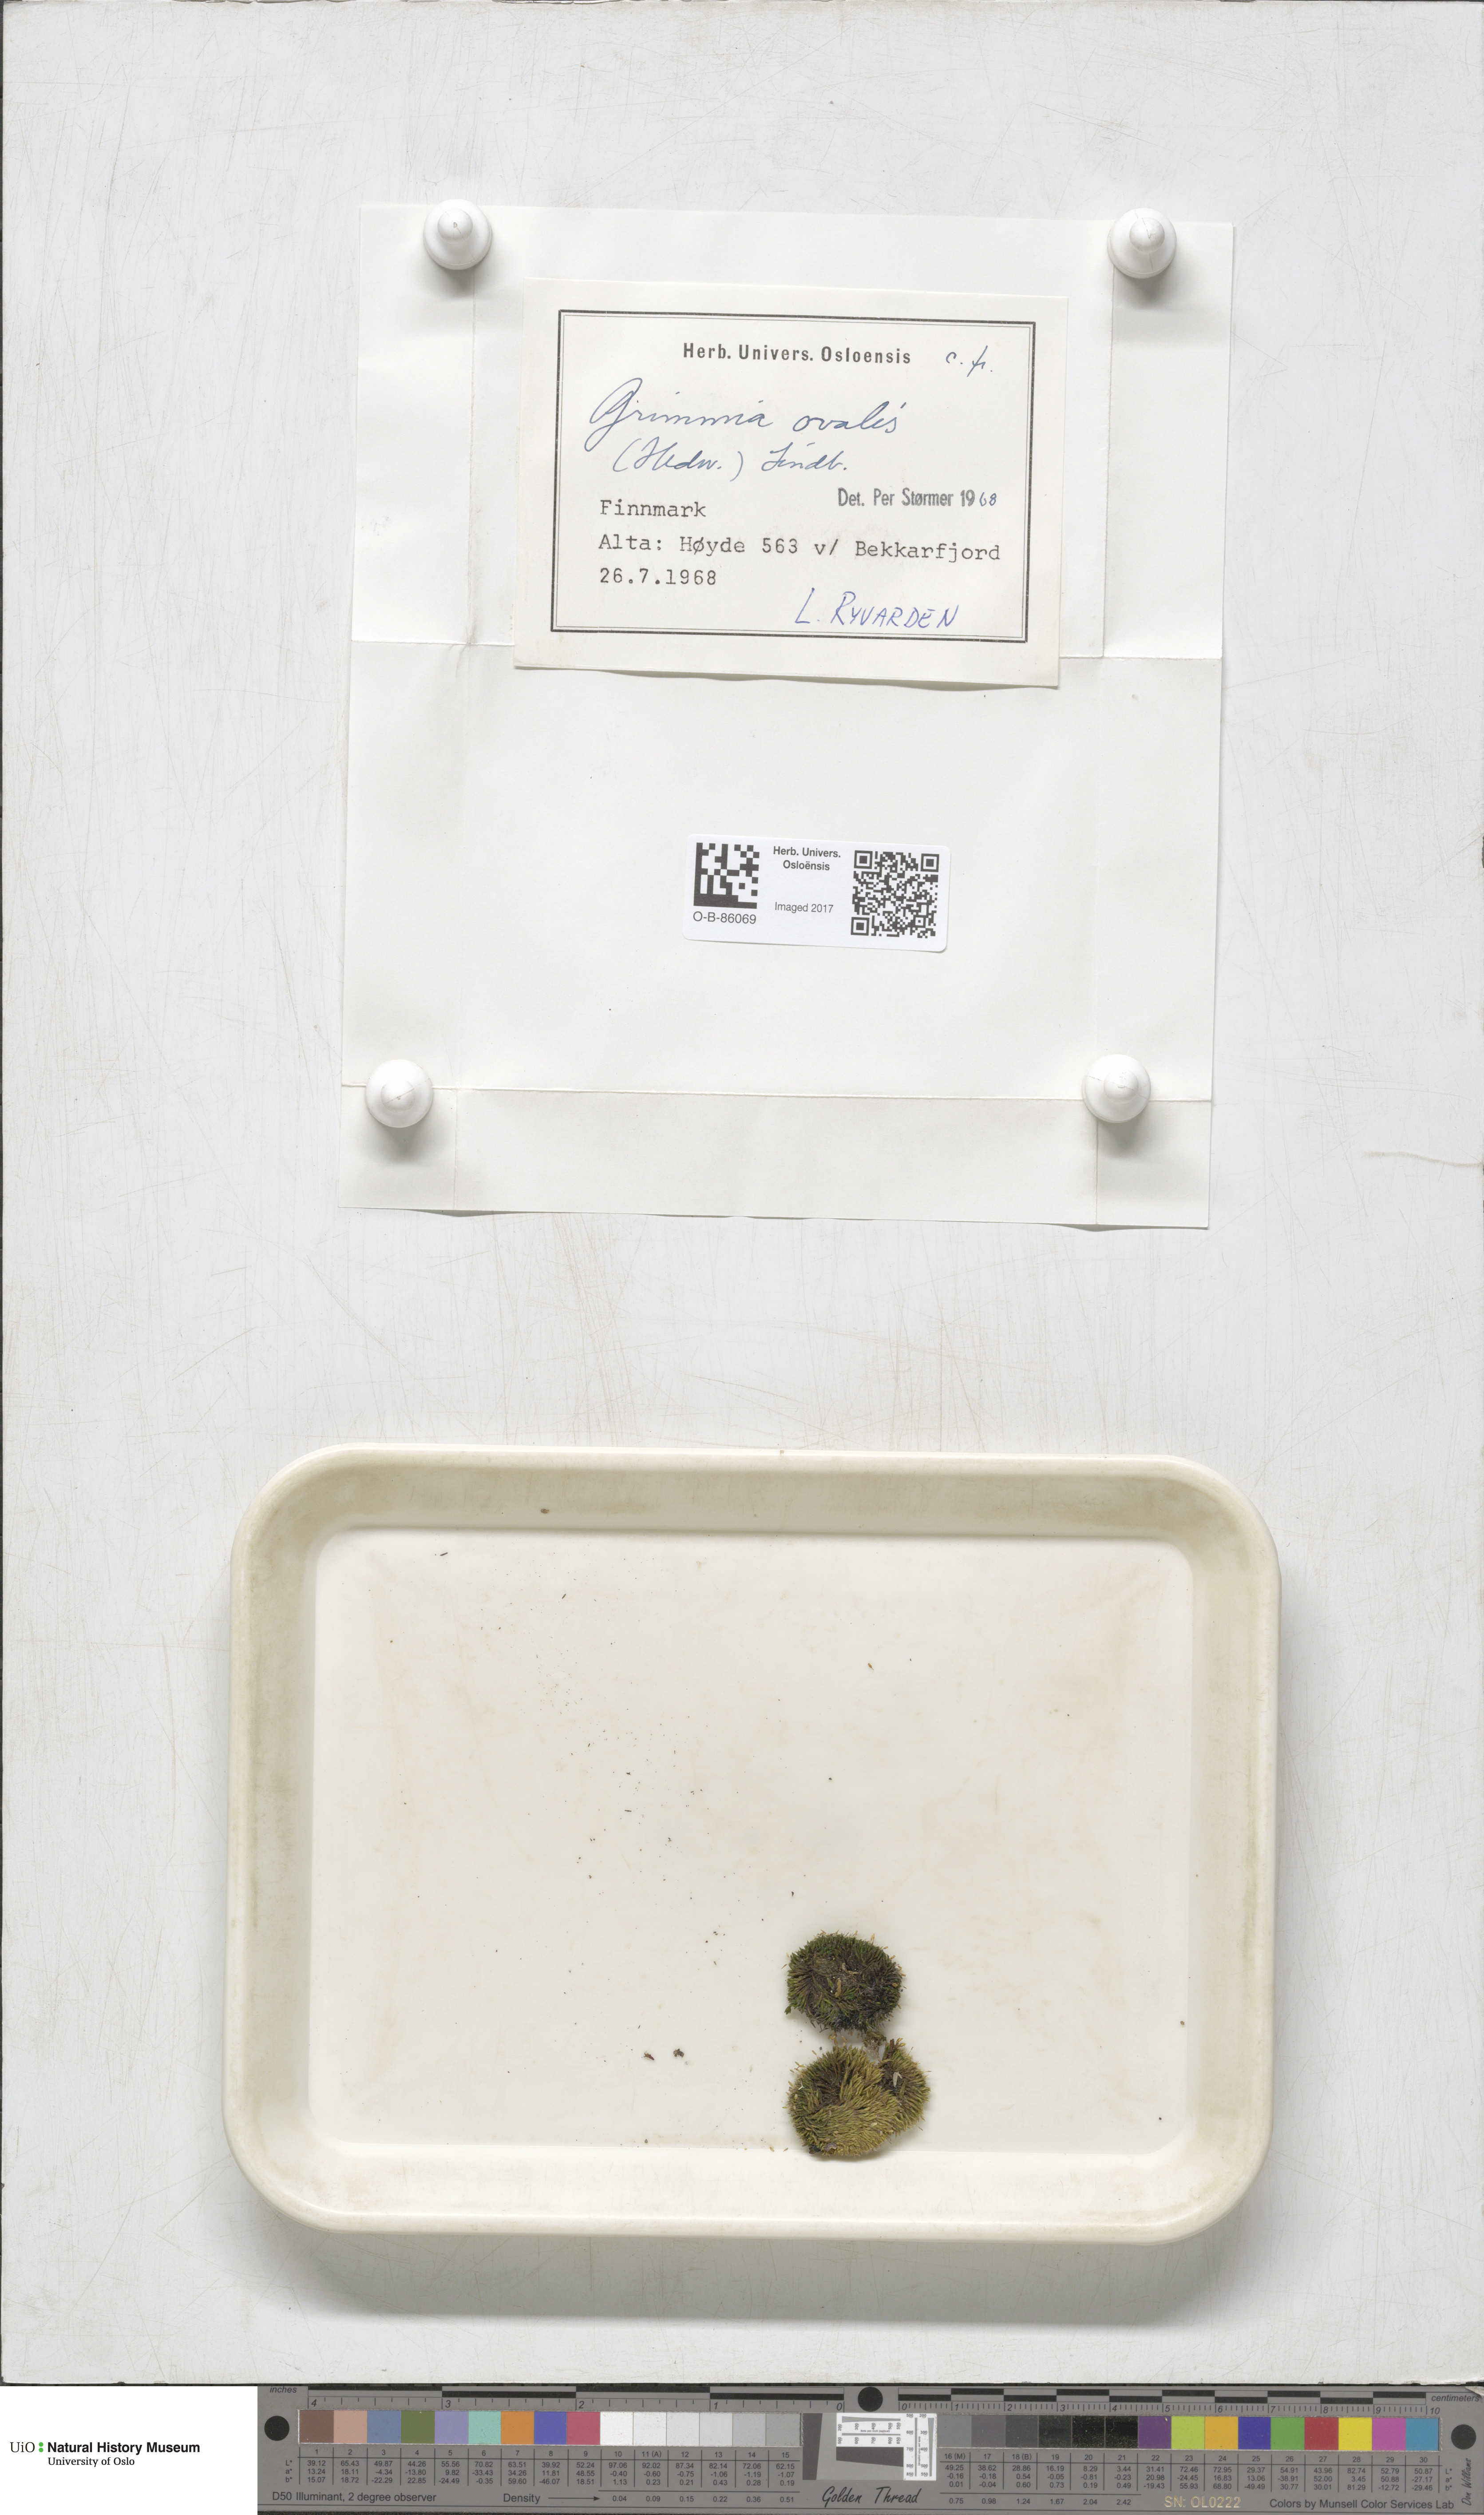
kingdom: Plantae
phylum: Bryophyta
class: Bryopsida
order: Grimmiales
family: Grimmiaceae
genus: Grimmia
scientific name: Grimmia ovalis
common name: Oval grimmia
